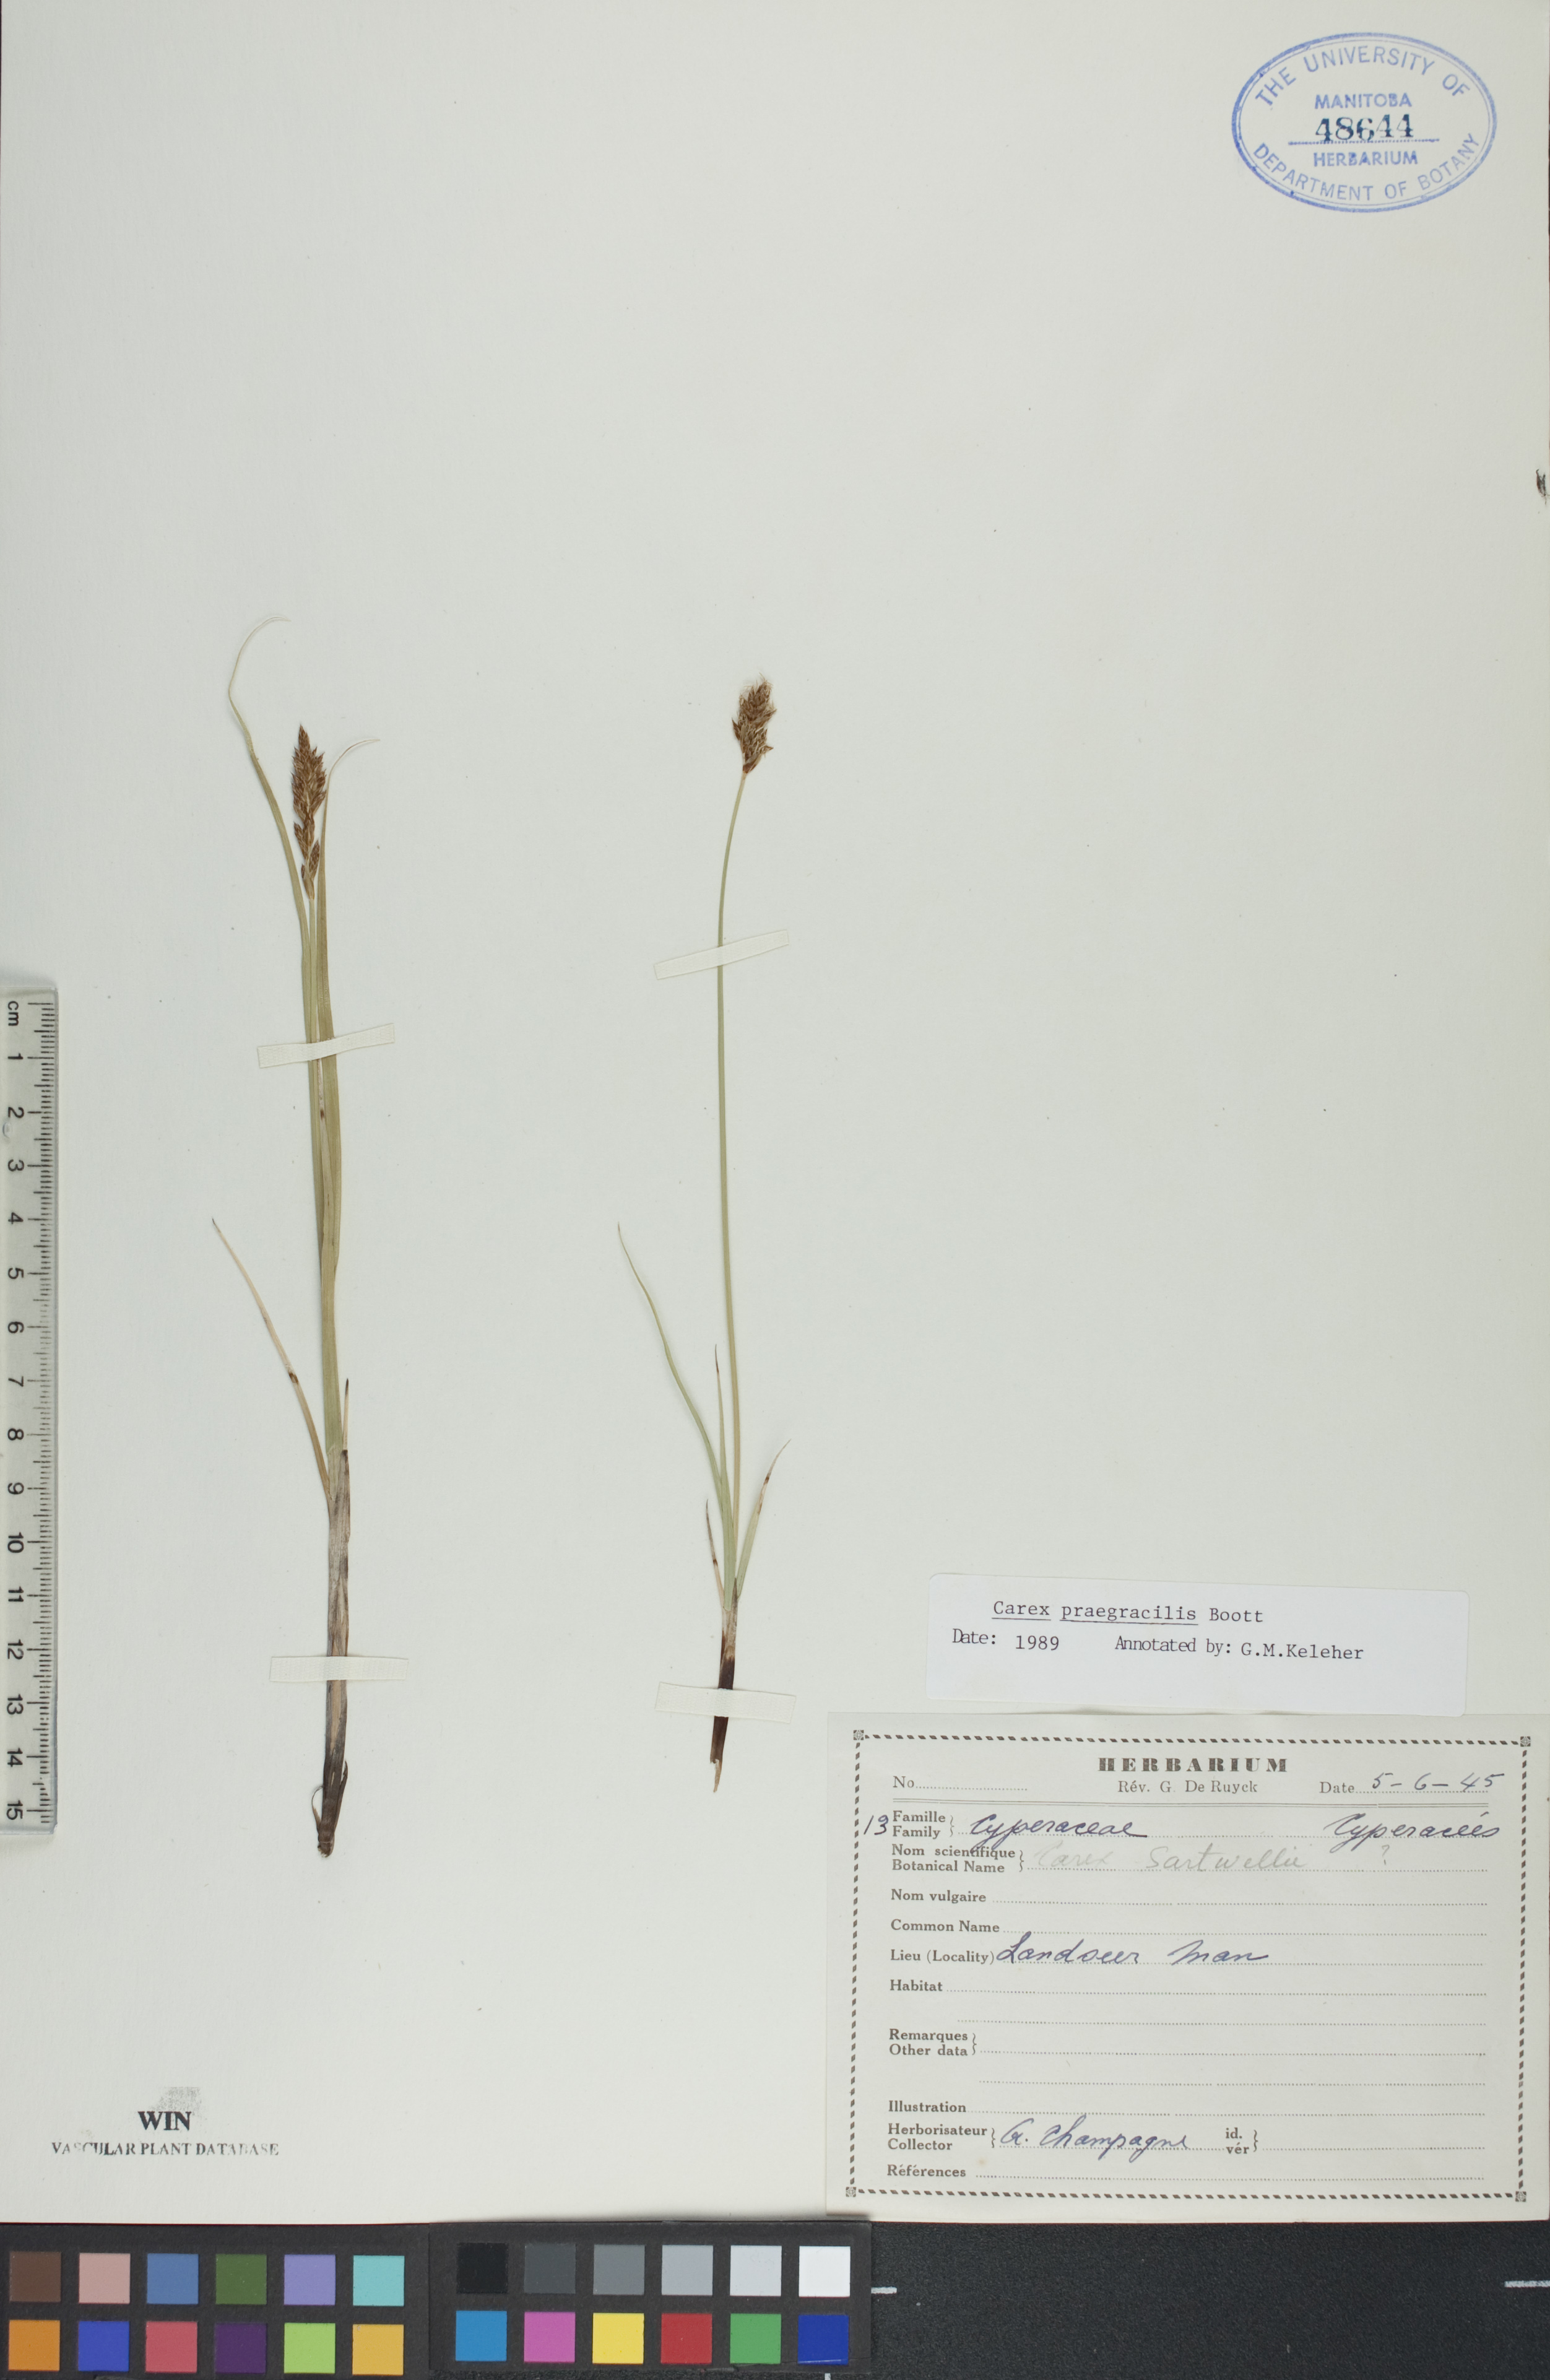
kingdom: Plantae
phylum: Tracheophyta
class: Liliopsida
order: Poales
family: Cyperaceae
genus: Carex
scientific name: Carex praegracilis
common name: Black creeper sedge
